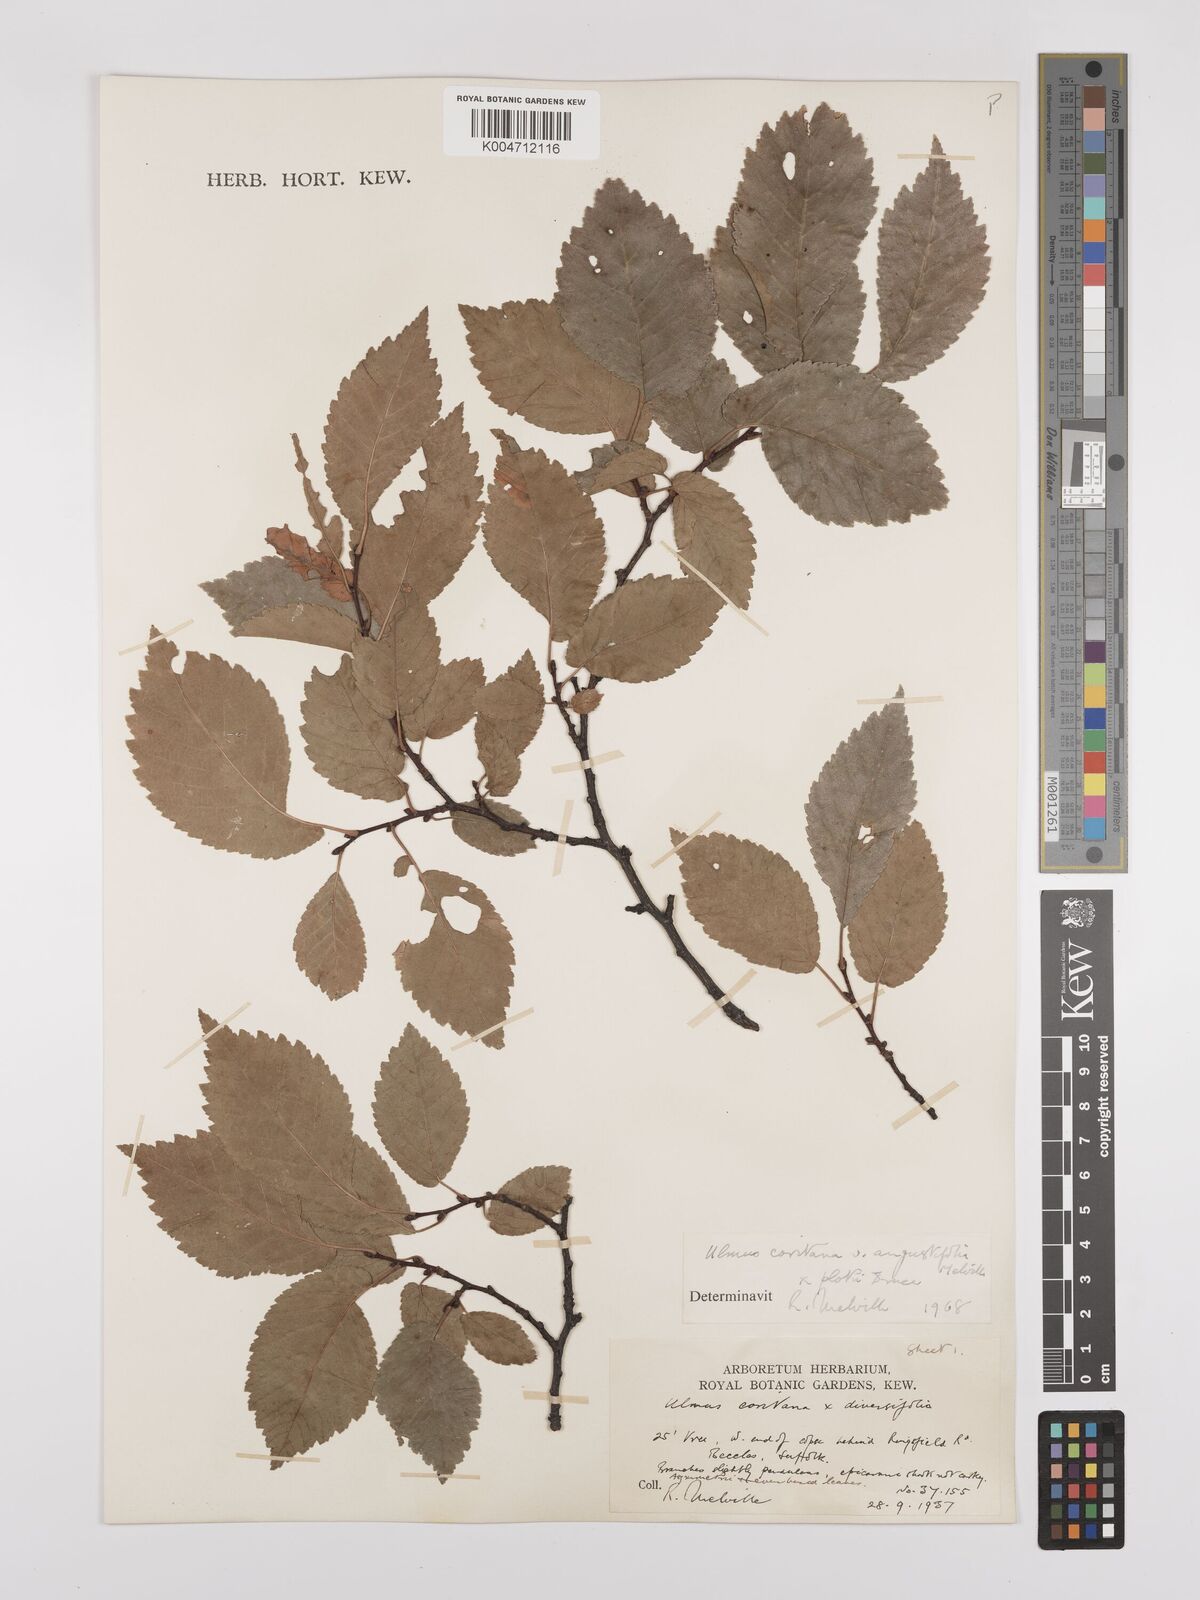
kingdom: Plantae
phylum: Tracheophyta
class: Magnoliopsida
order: Rosales
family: Ulmaceae
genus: Ulmus
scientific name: Ulmus minor
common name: Small-leaved elm
